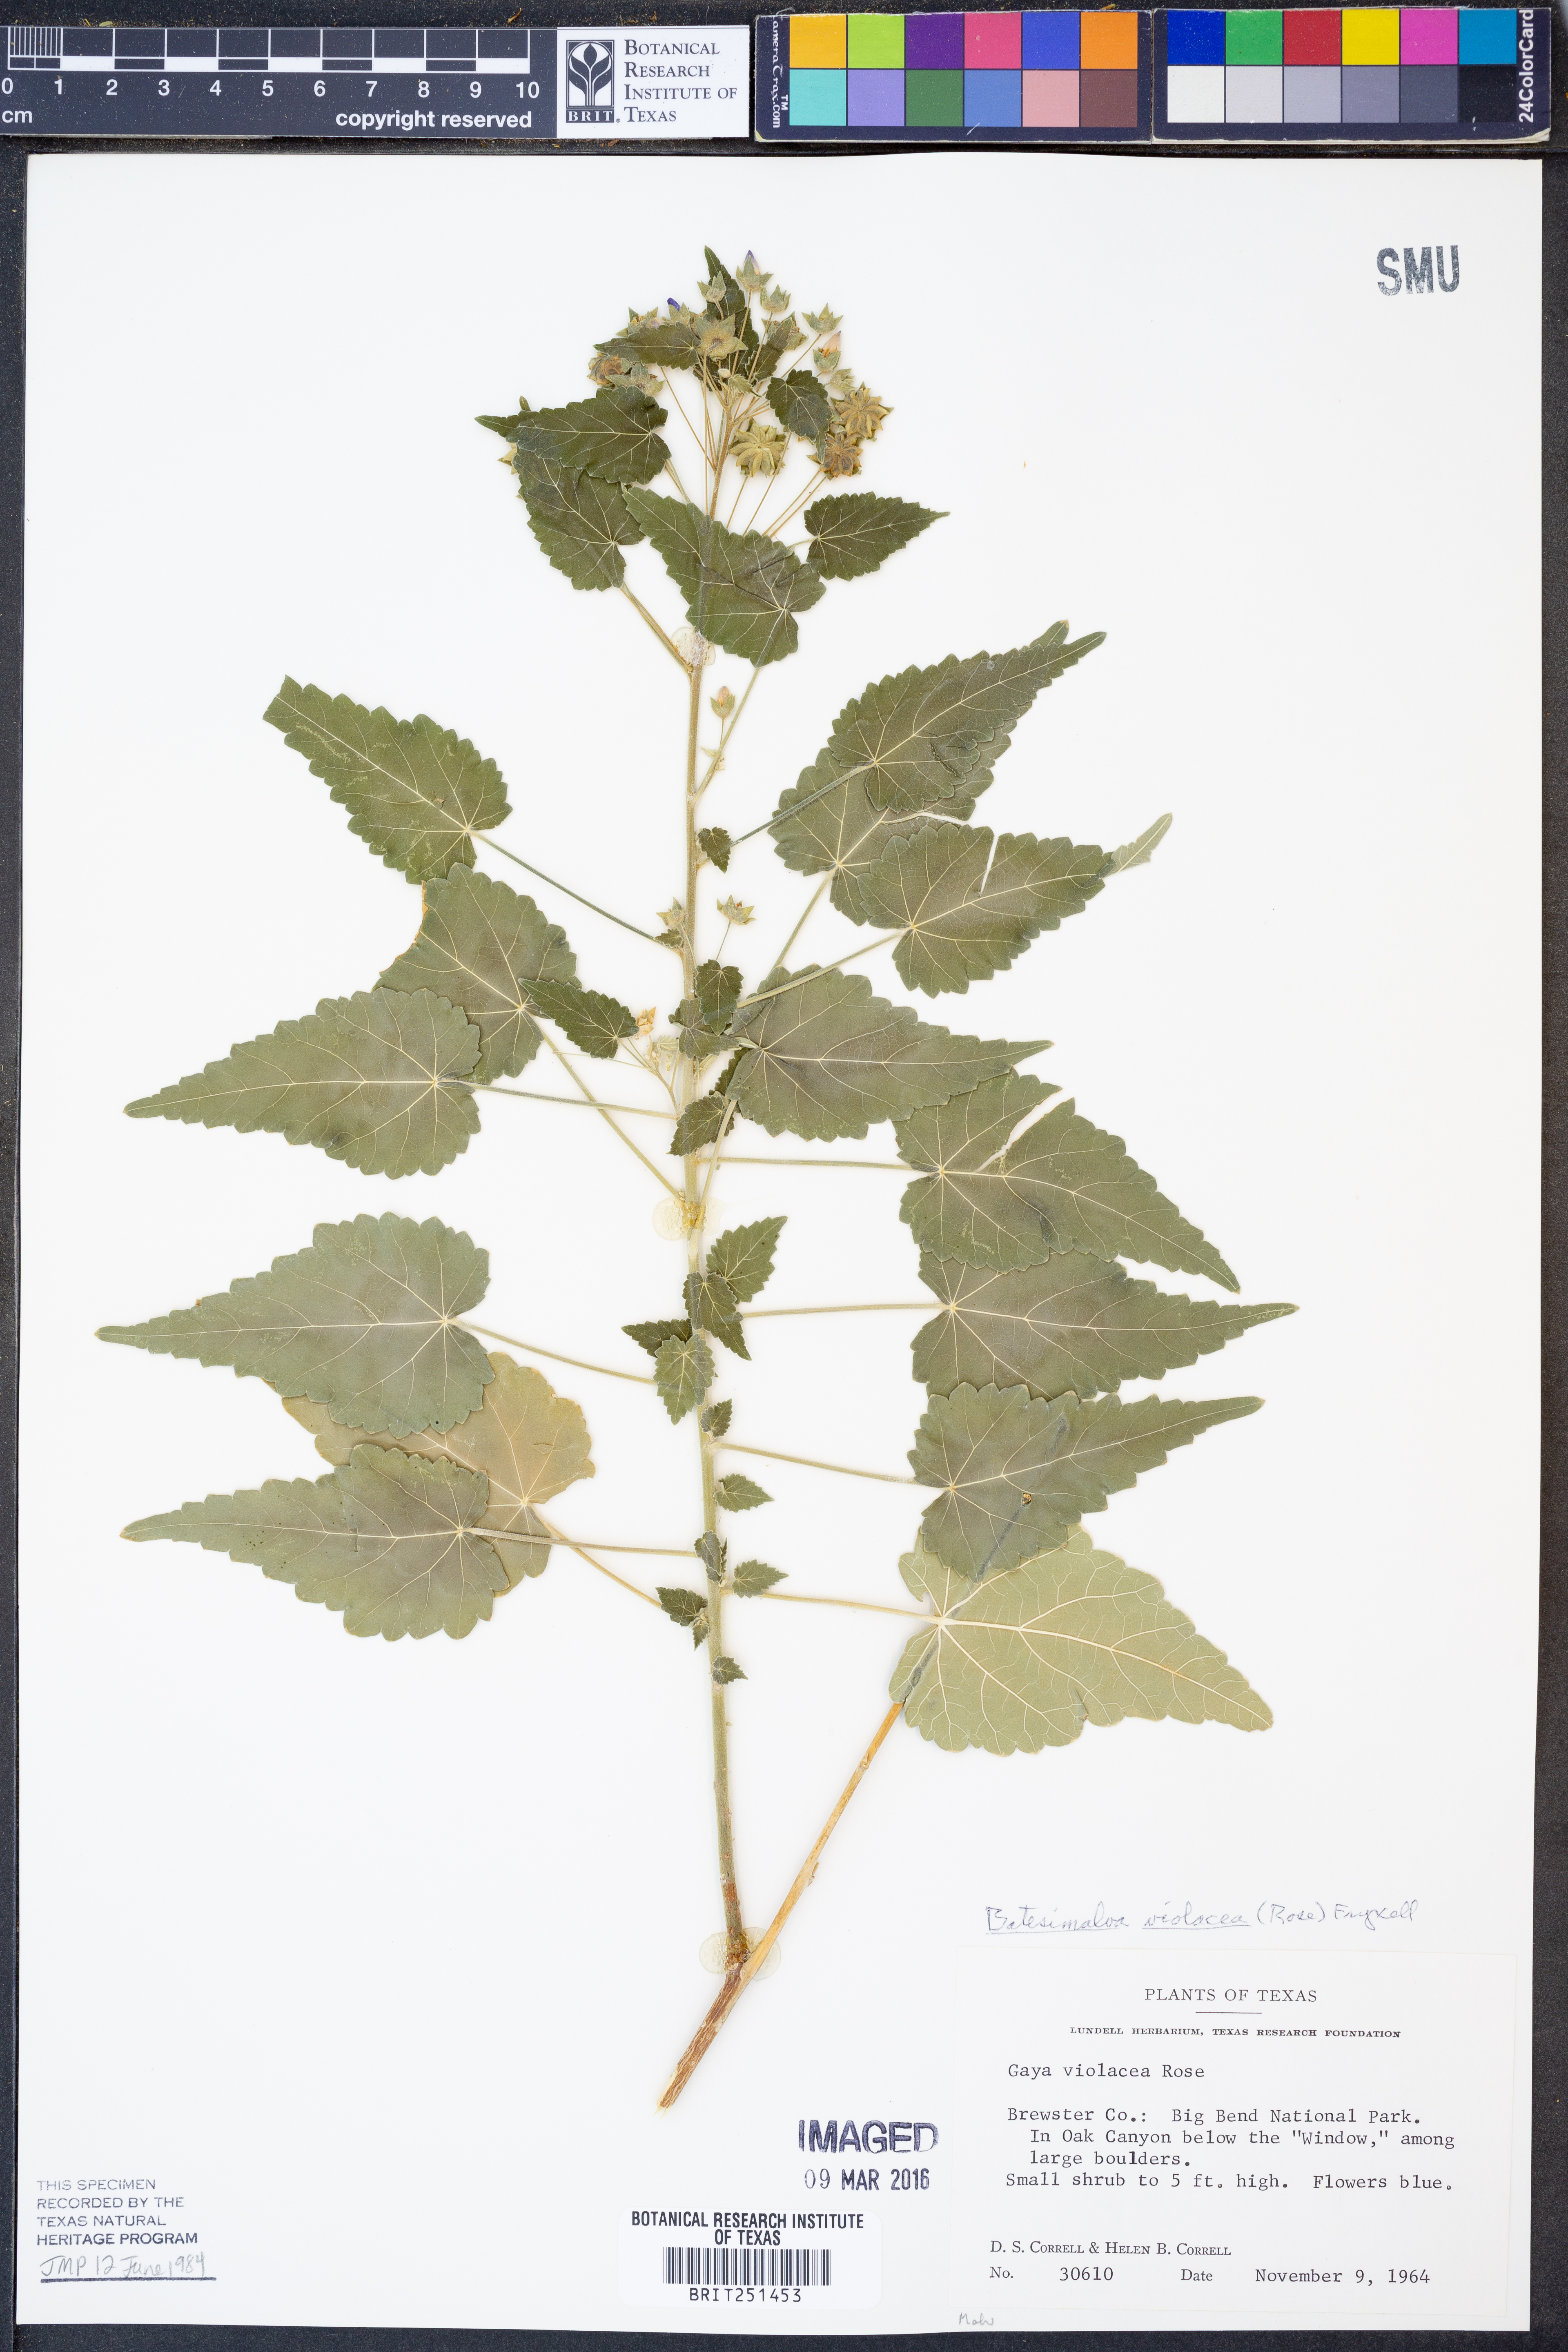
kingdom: Plantae
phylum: Tracheophyta
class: Magnoliopsida
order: Malvales
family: Malvaceae
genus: Batesimalva
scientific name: Batesimalva violacea
